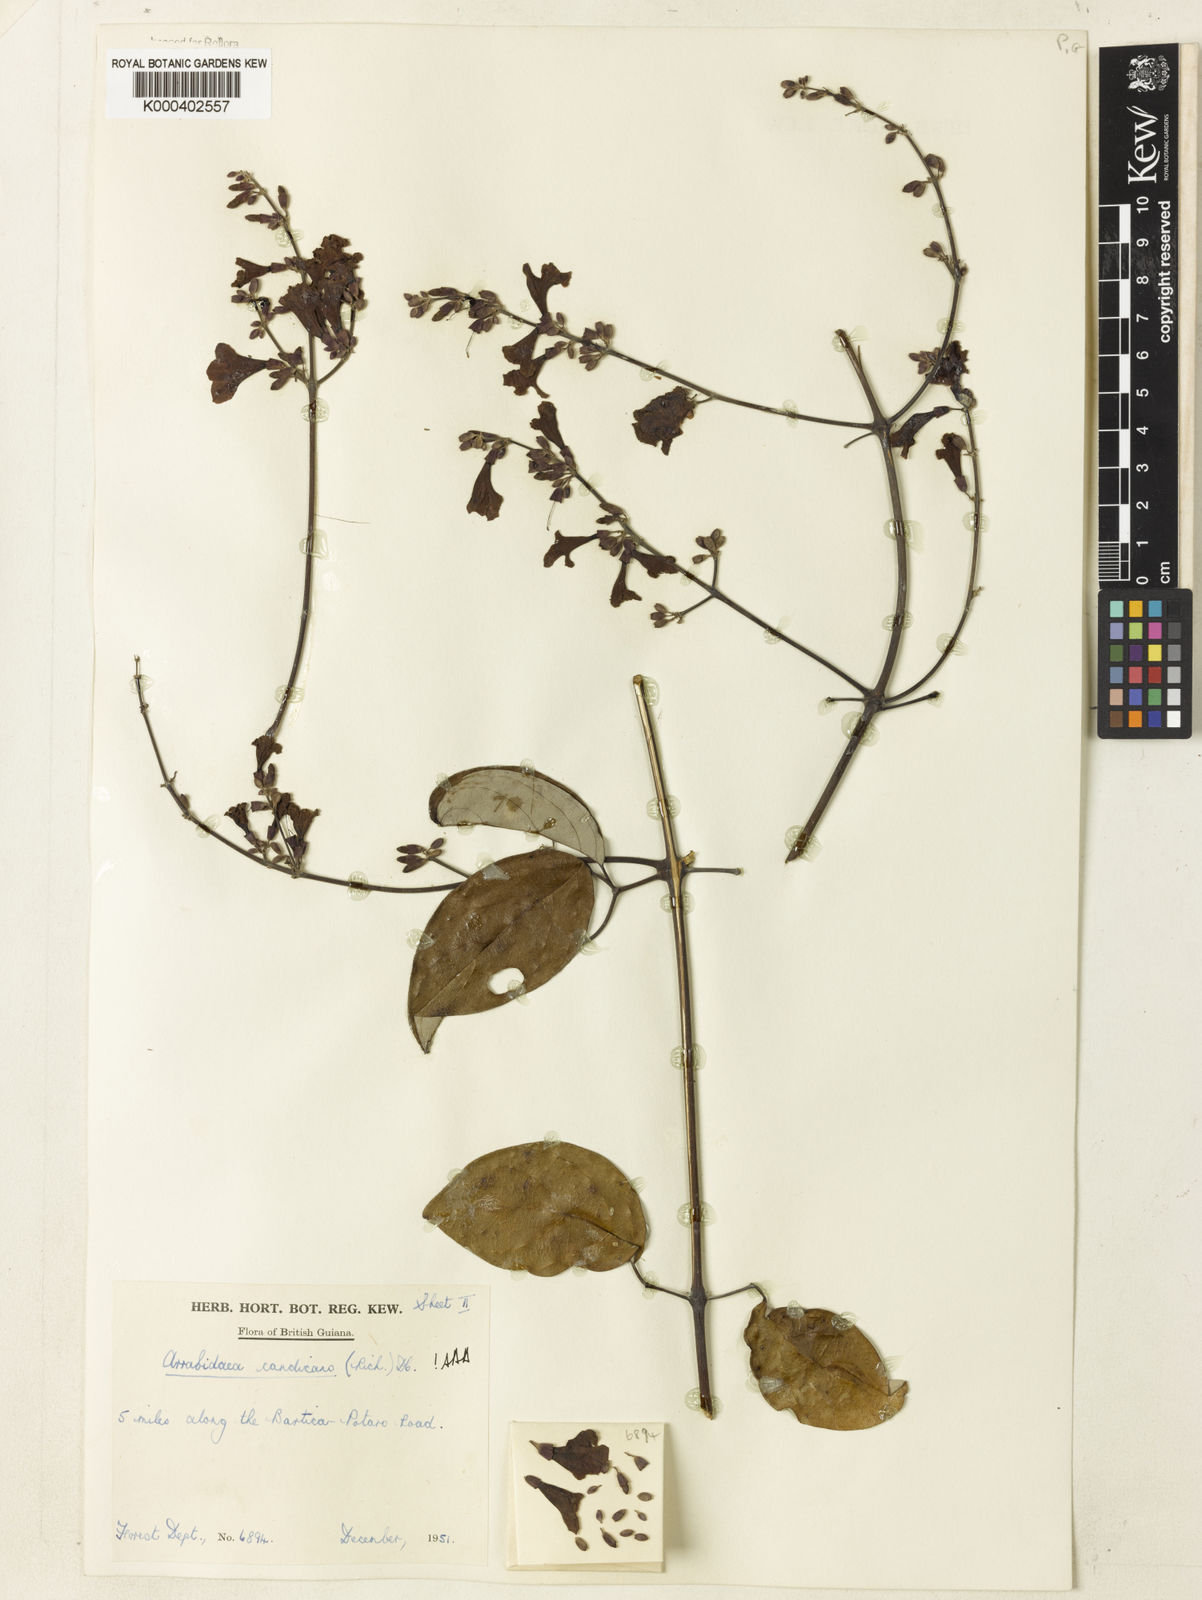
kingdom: Plantae
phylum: Tracheophyta
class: Magnoliopsida
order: Lamiales
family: Bignoniaceae
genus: Fridericia
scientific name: Fridericia candicans
